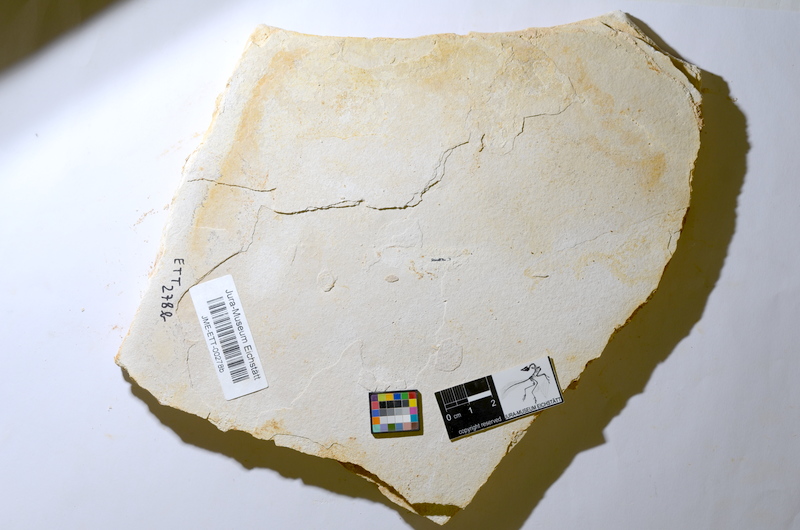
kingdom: Animalia
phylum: Chordata
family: Ascalaboidae
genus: Ebertichthys
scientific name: Ebertichthys ettlingensis
